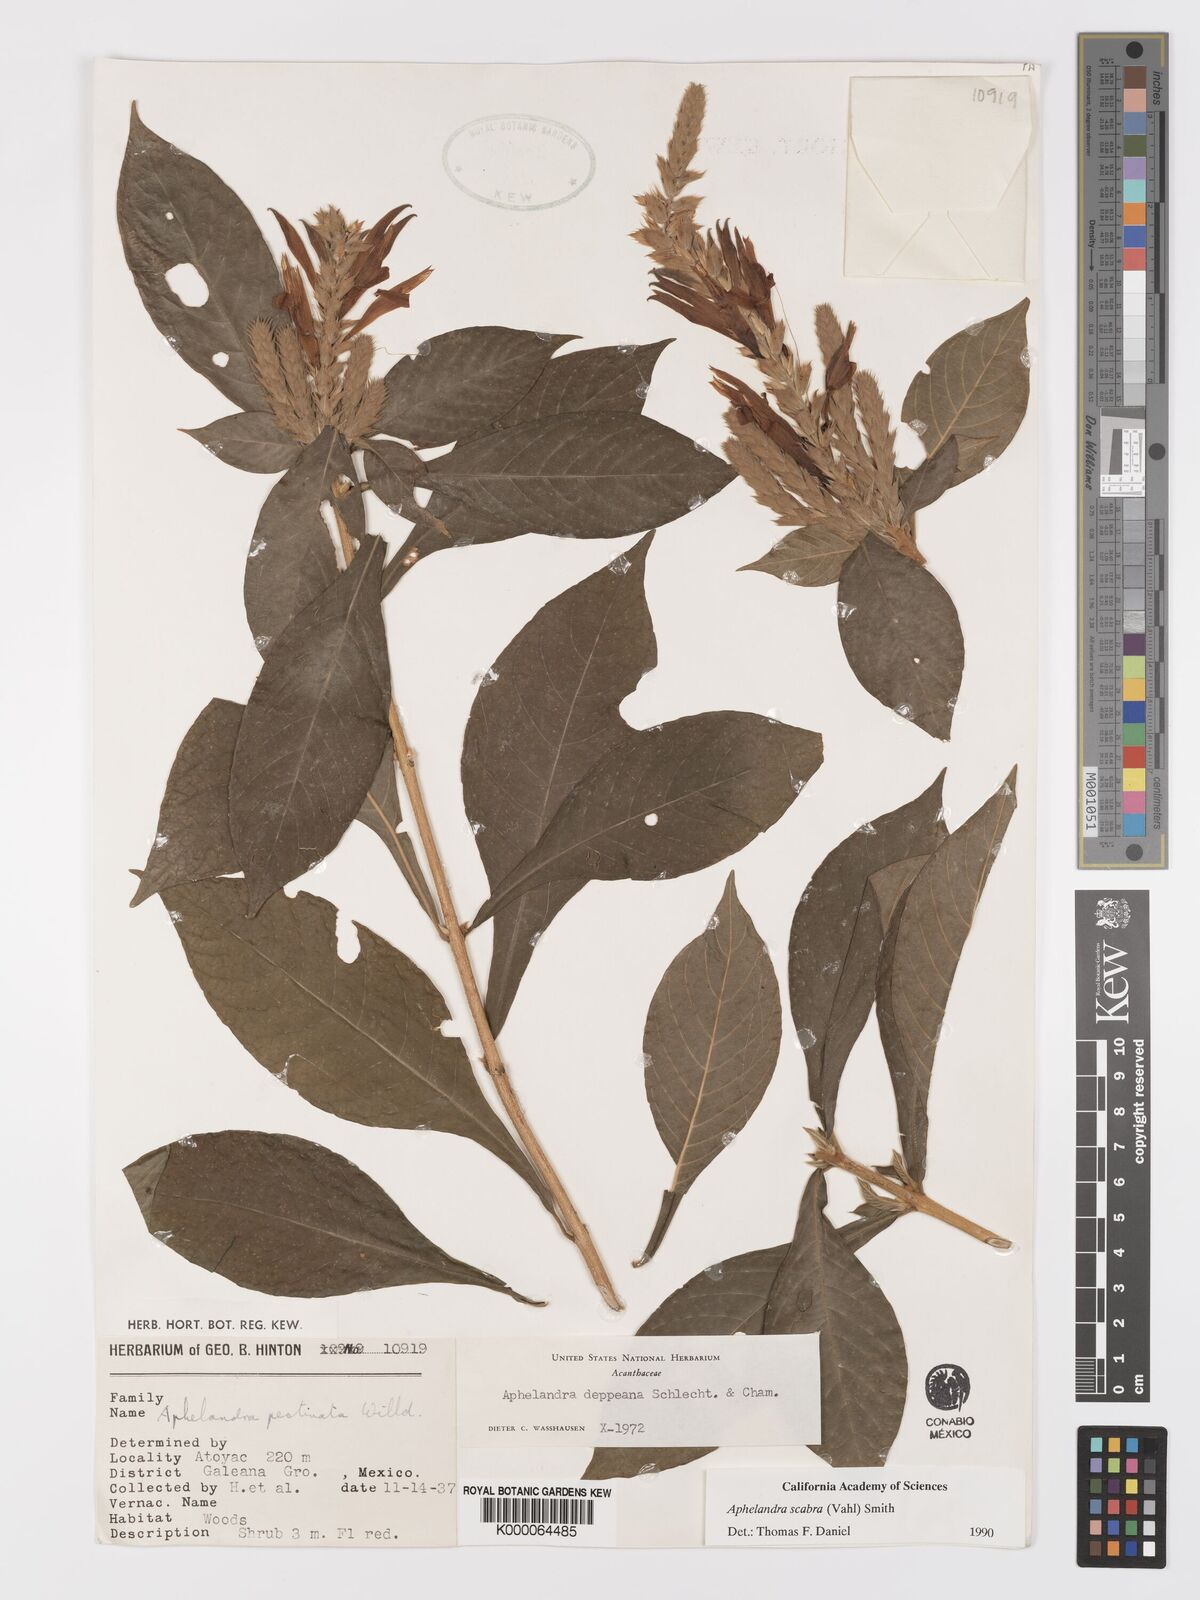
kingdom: Plantae
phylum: Tracheophyta
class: Magnoliopsida
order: Lamiales
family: Acanthaceae
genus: Aphelandra
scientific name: Aphelandra scabra
